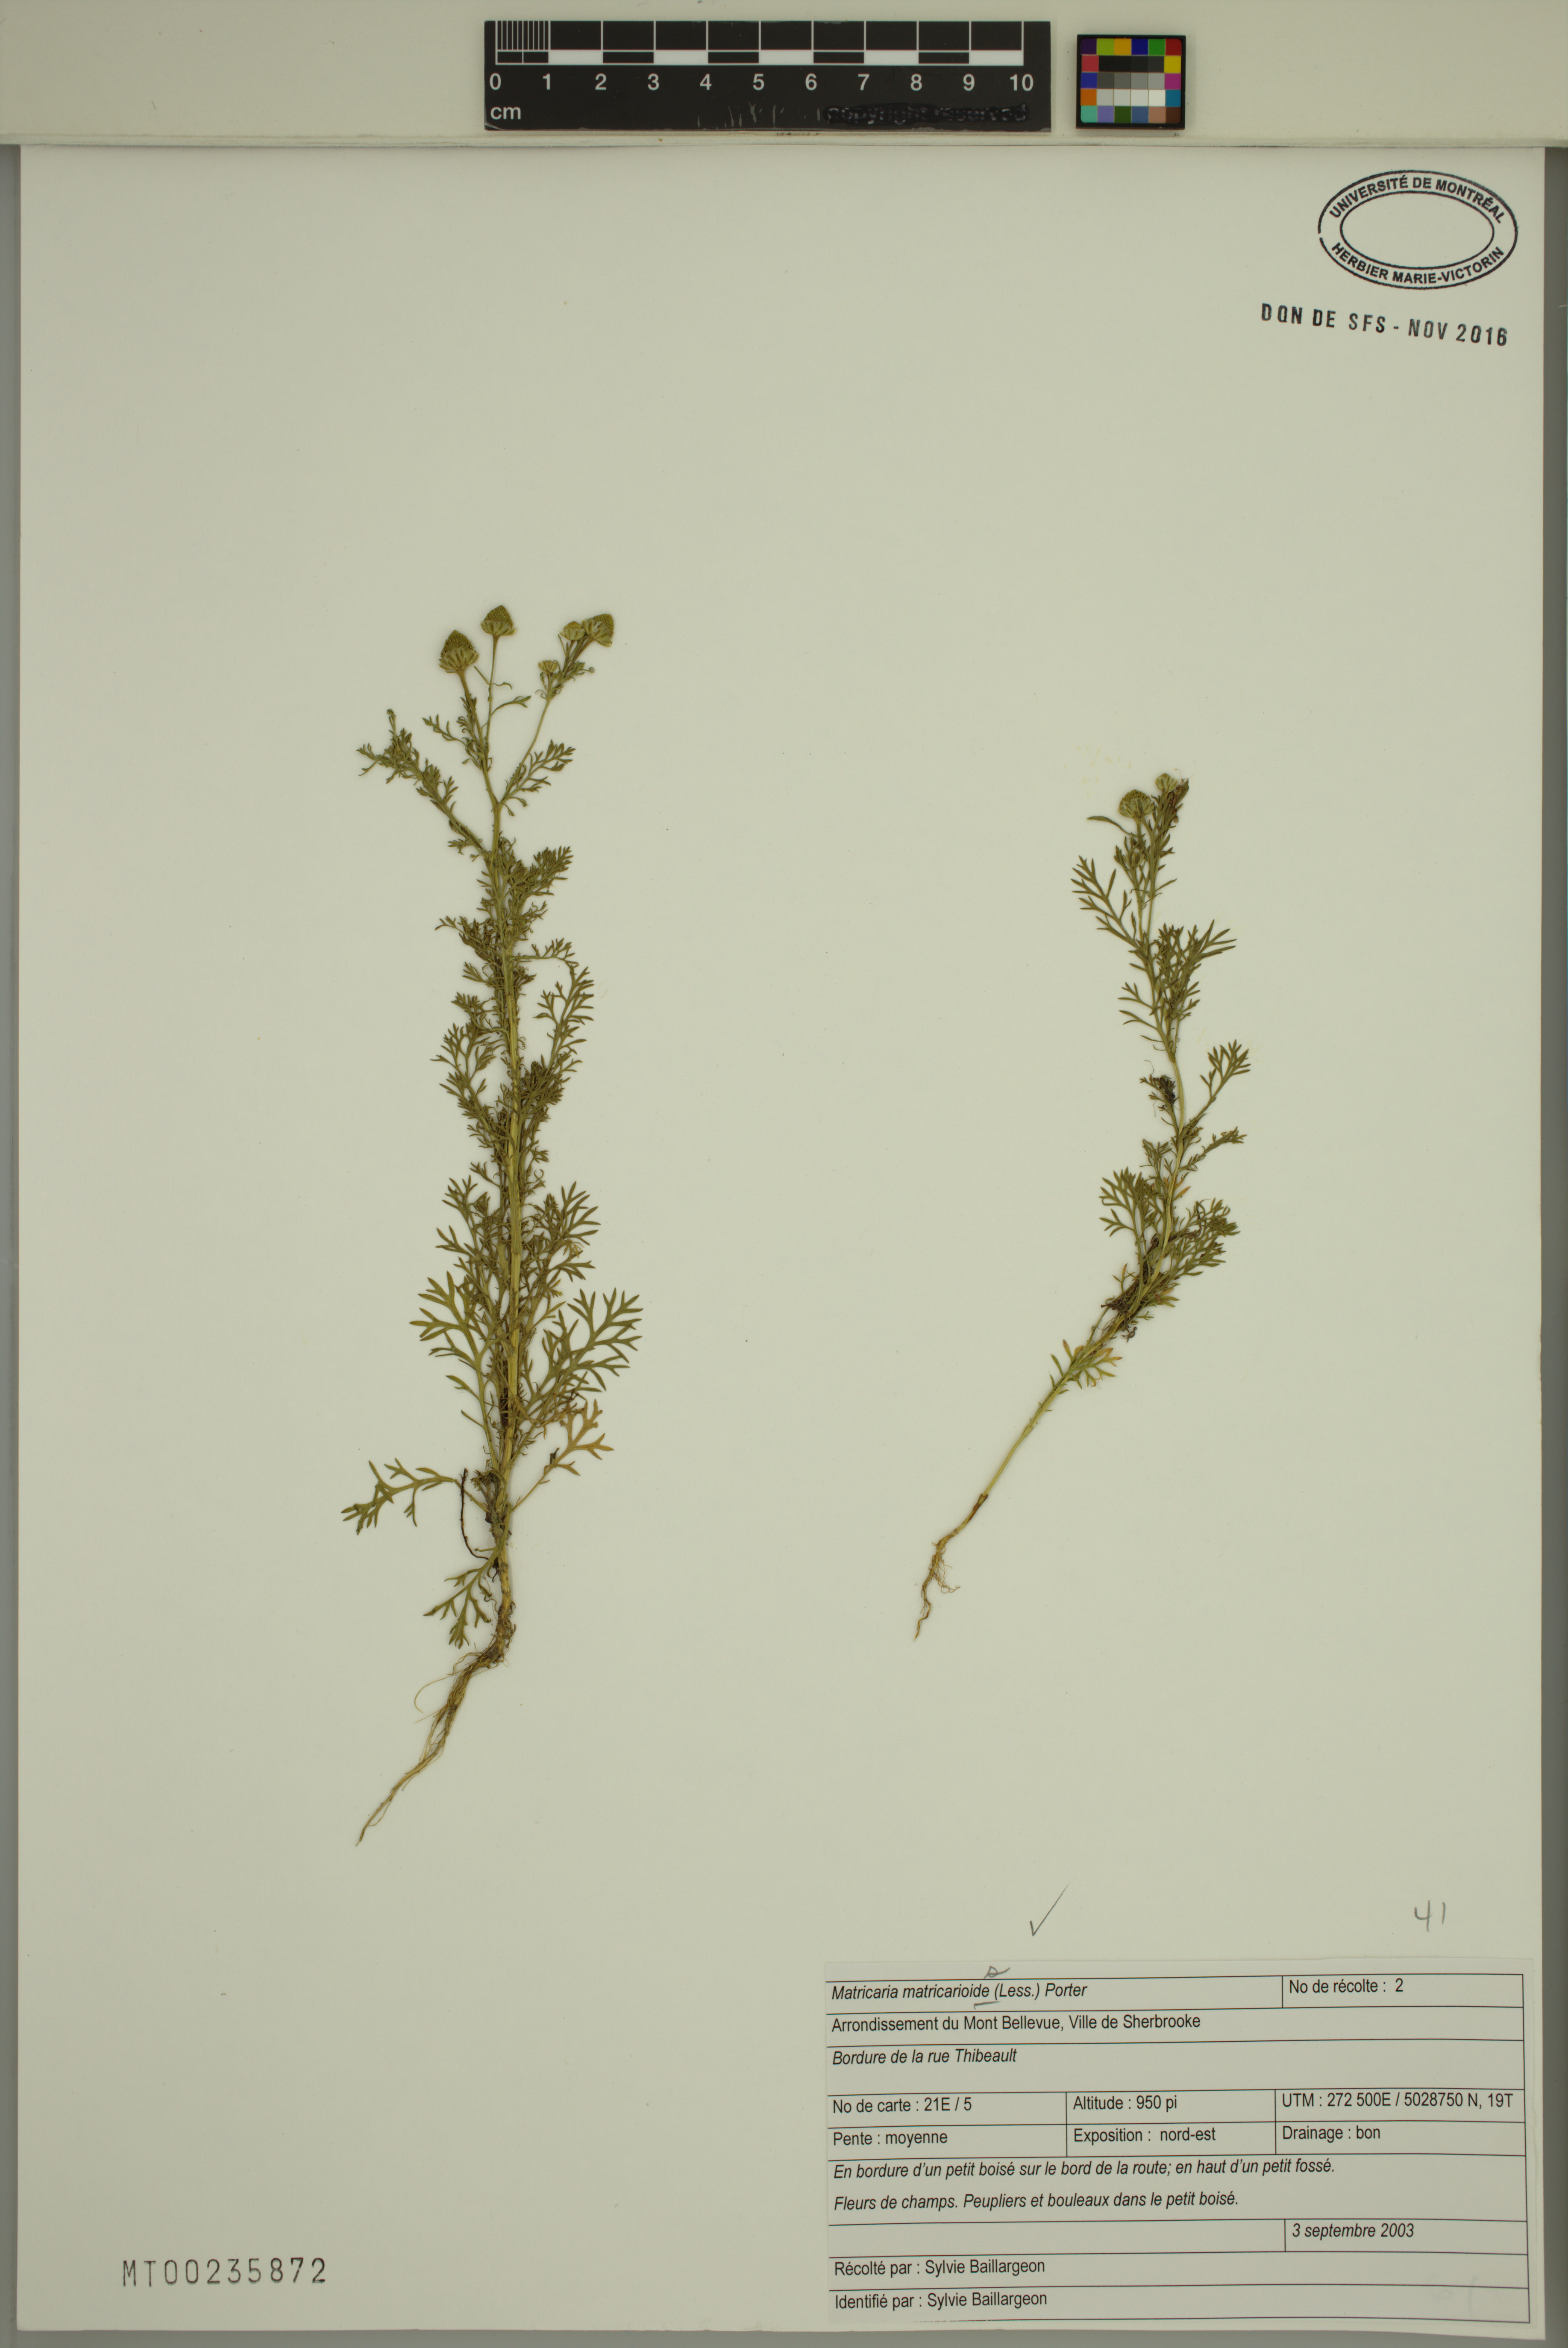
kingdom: Plantae
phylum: Tracheophyta
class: Magnoliopsida
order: Asterales
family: Asteraceae
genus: Matricaria
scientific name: Matricaria discoidea
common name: Disc mayweed
